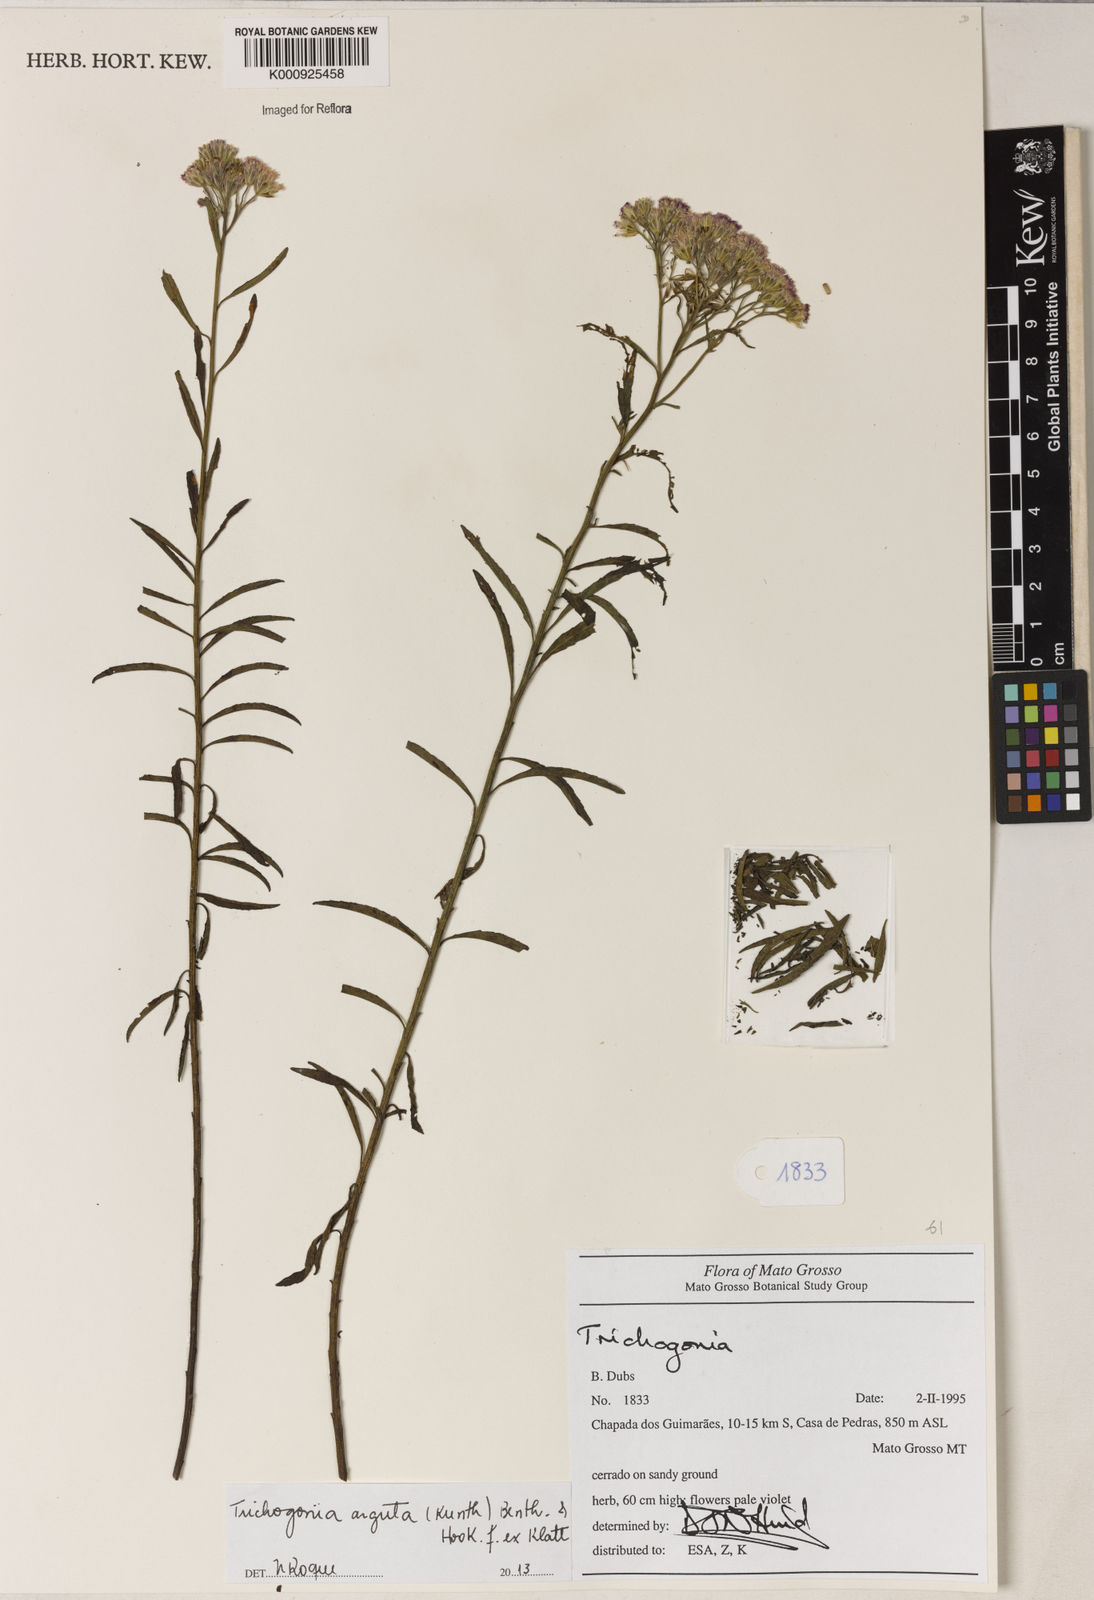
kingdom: Plantae
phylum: Tracheophyta
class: Magnoliopsida
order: Asterales
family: Asteraceae
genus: Trichogonia
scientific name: Trichogonia arguta
